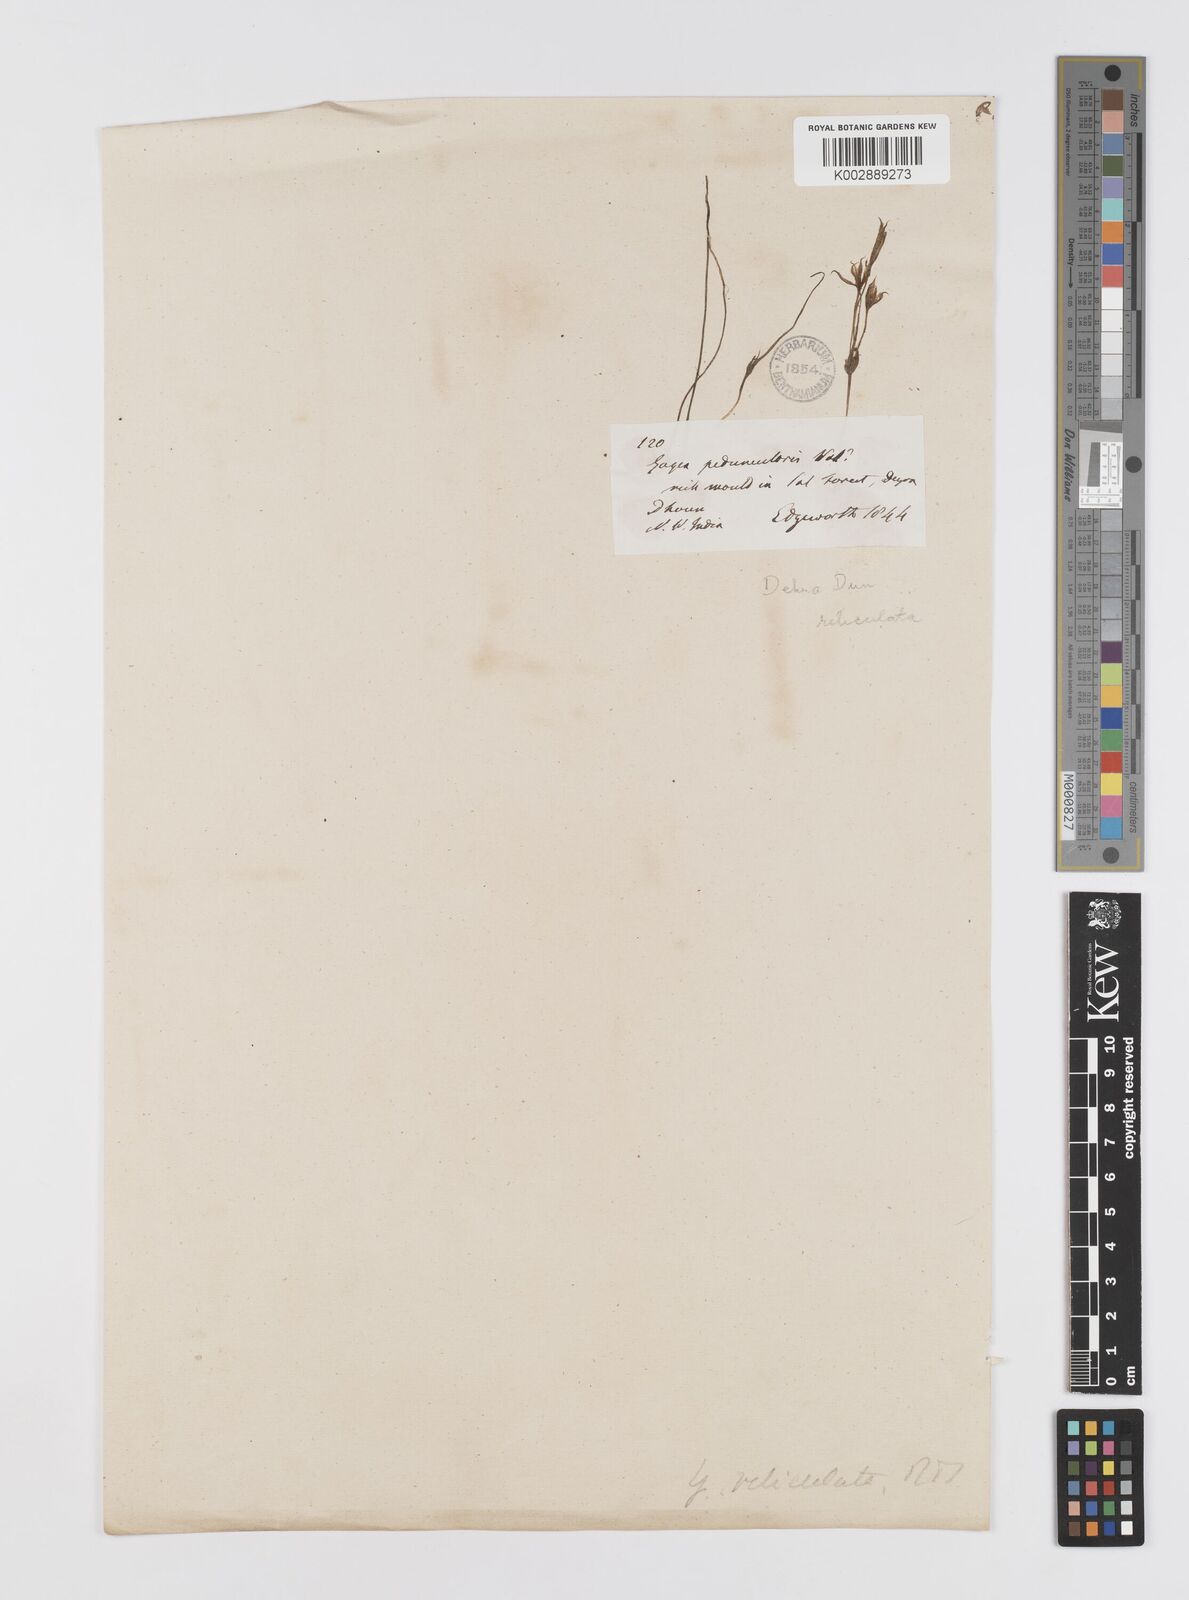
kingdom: Plantae
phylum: Tracheophyta
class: Liliopsida
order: Liliales
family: Liliaceae
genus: Gagea
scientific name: Gagea reticulata
